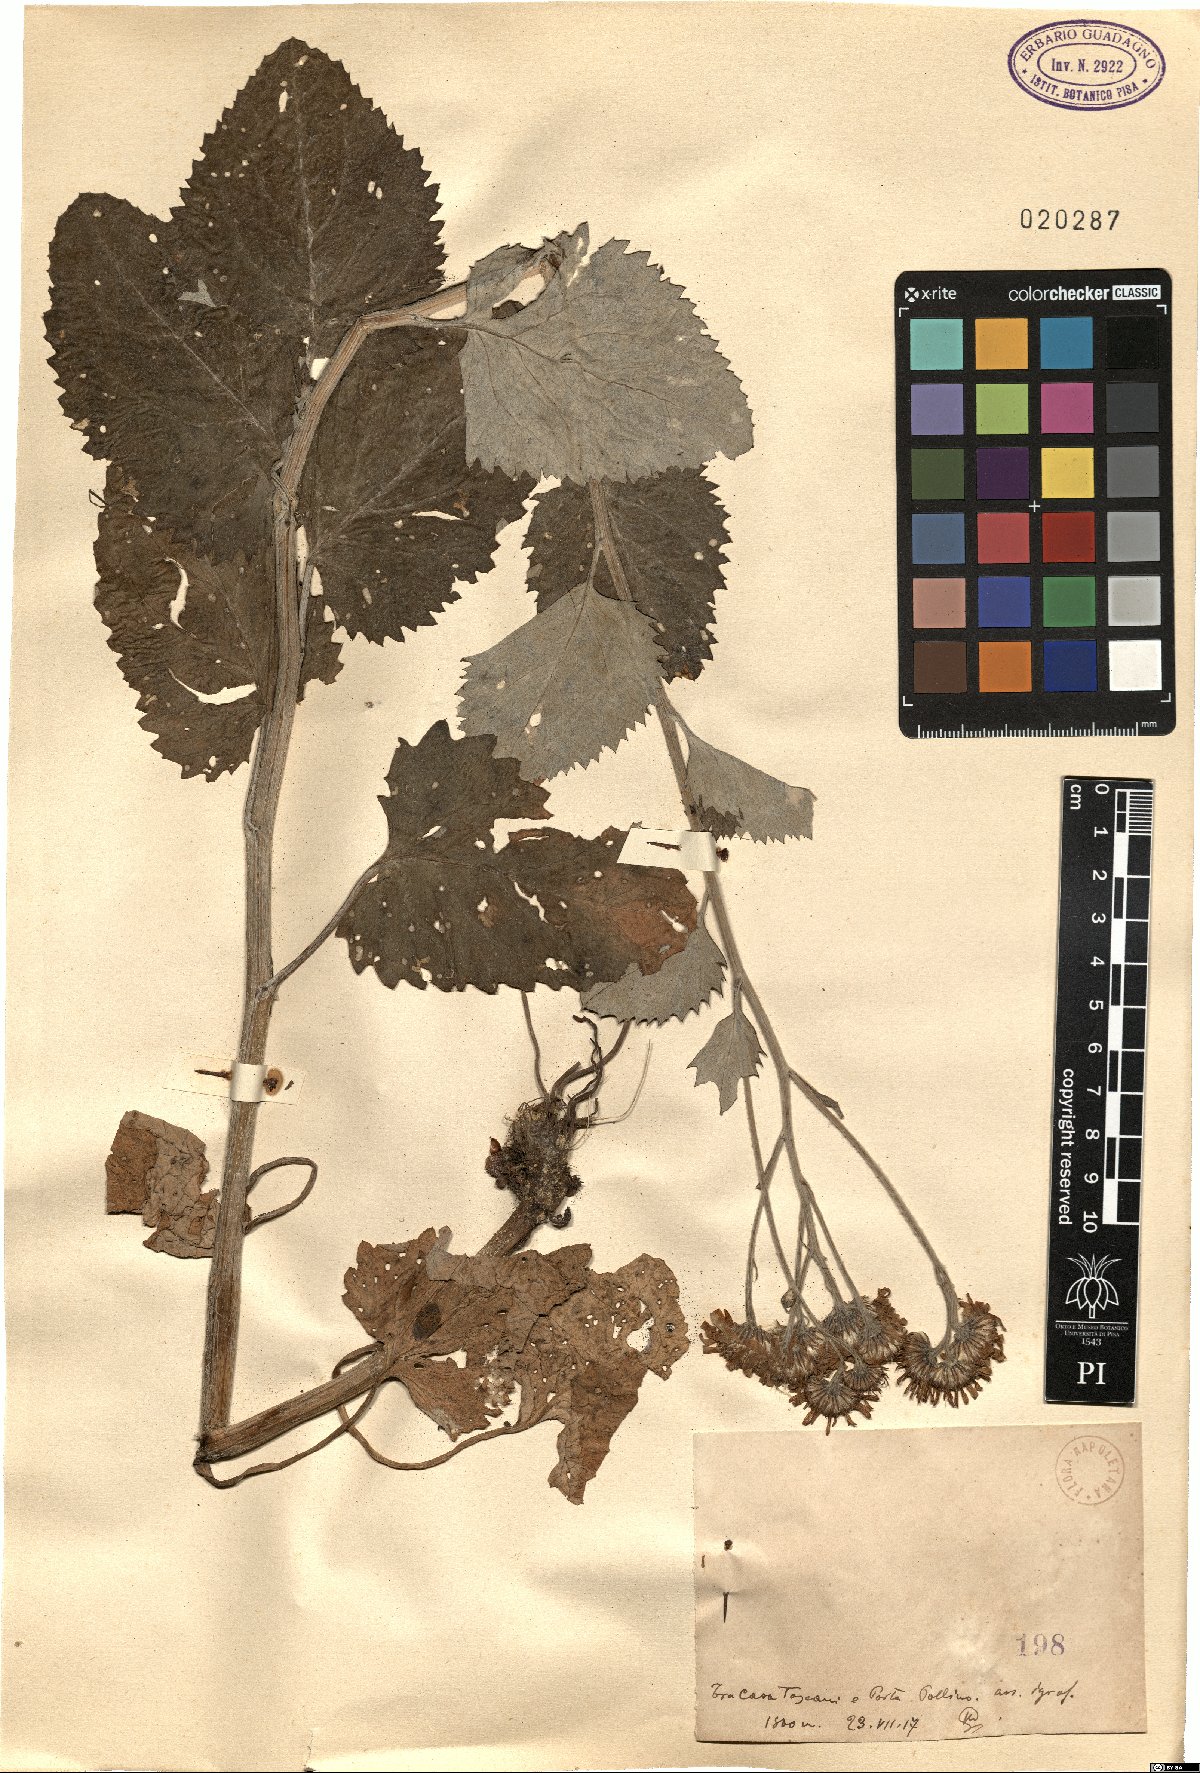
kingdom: Plantae
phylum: Tracheophyta
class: Magnoliopsida
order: Asterales
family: Asteraceae
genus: Senecio
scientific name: Senecio
